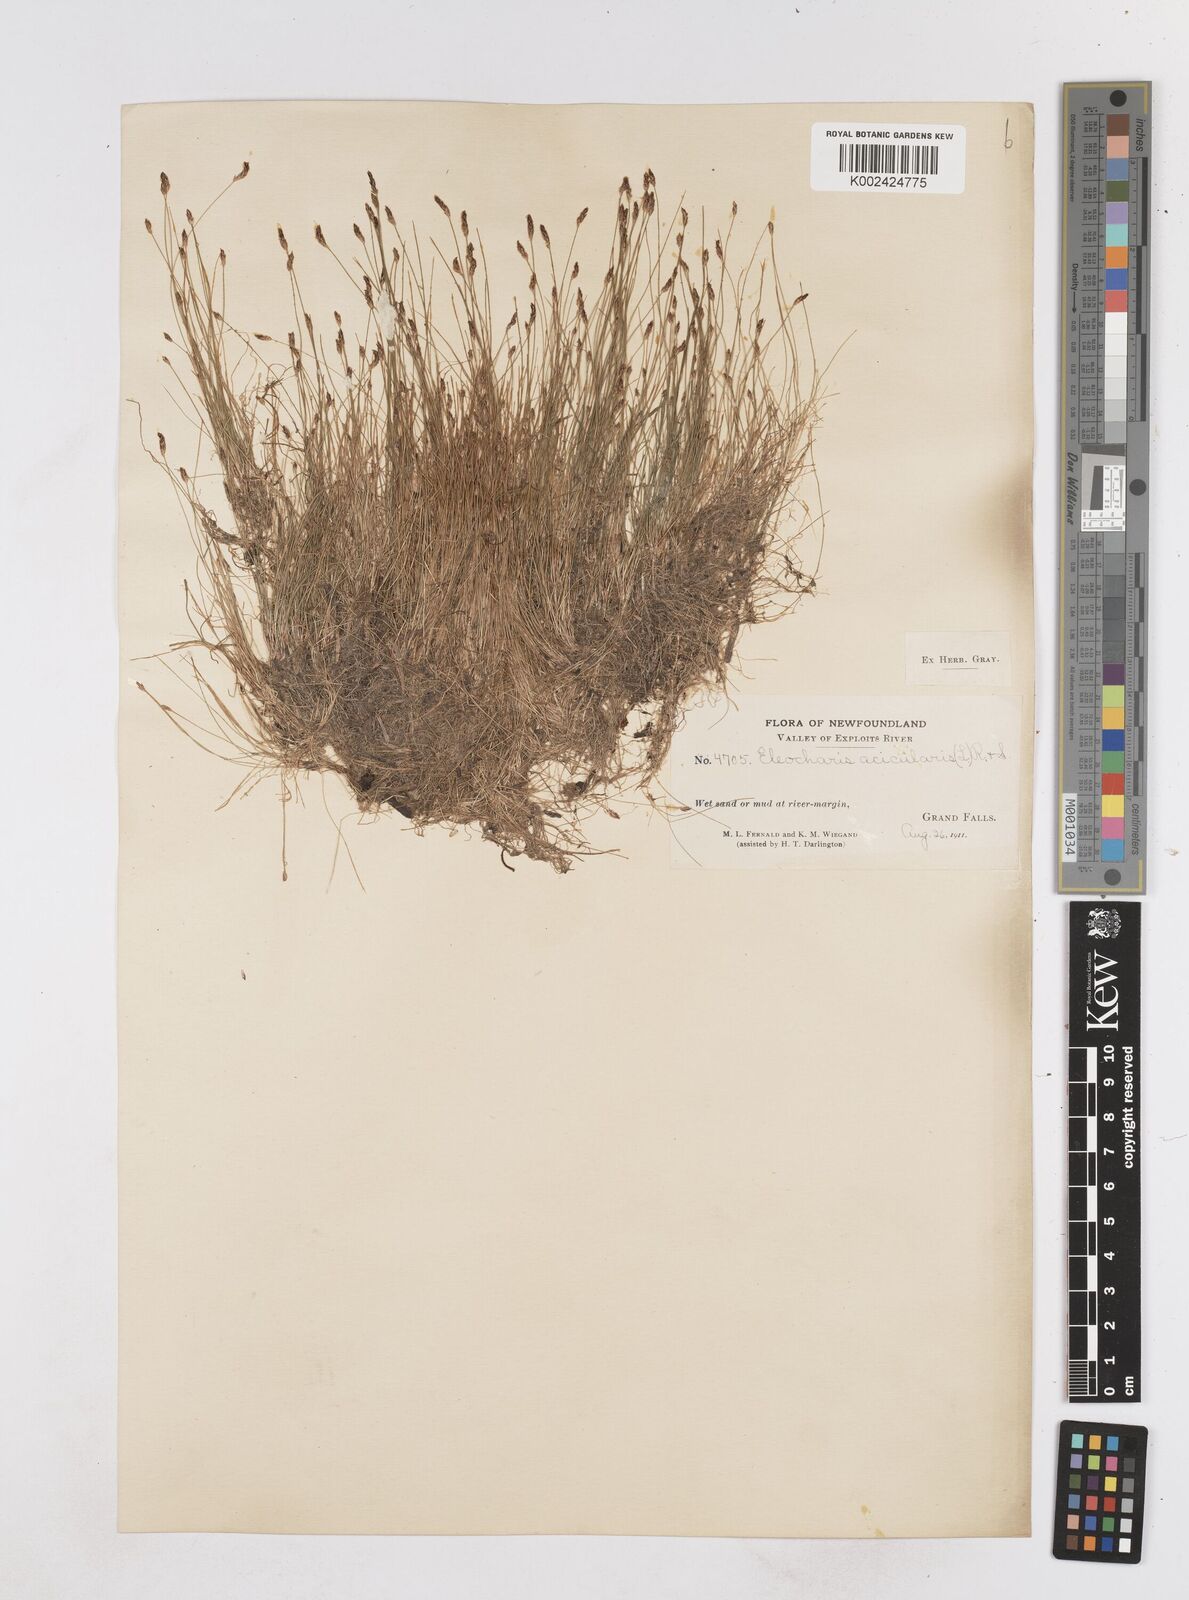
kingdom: Plantae
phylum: Tracheophyta
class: Liliopsida
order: Poales
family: Cyperaceae
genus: Eleocharis
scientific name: Eleocharis acicularis
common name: Needle spike-rush
